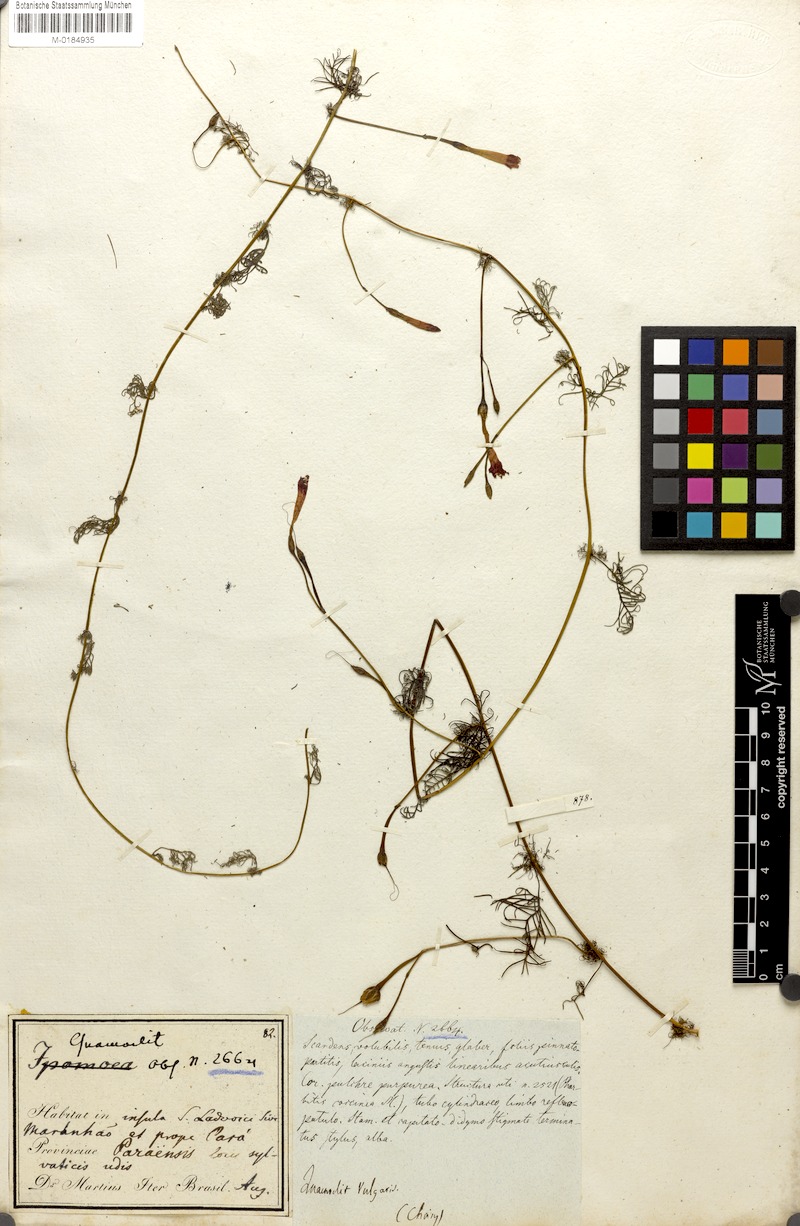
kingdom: Plantae
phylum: Tracheophyta
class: Magnoliopsida
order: Solanales
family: Convolvulaceae
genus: Ipomoea
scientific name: Ipomoea quamoclit
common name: Cypress vine
